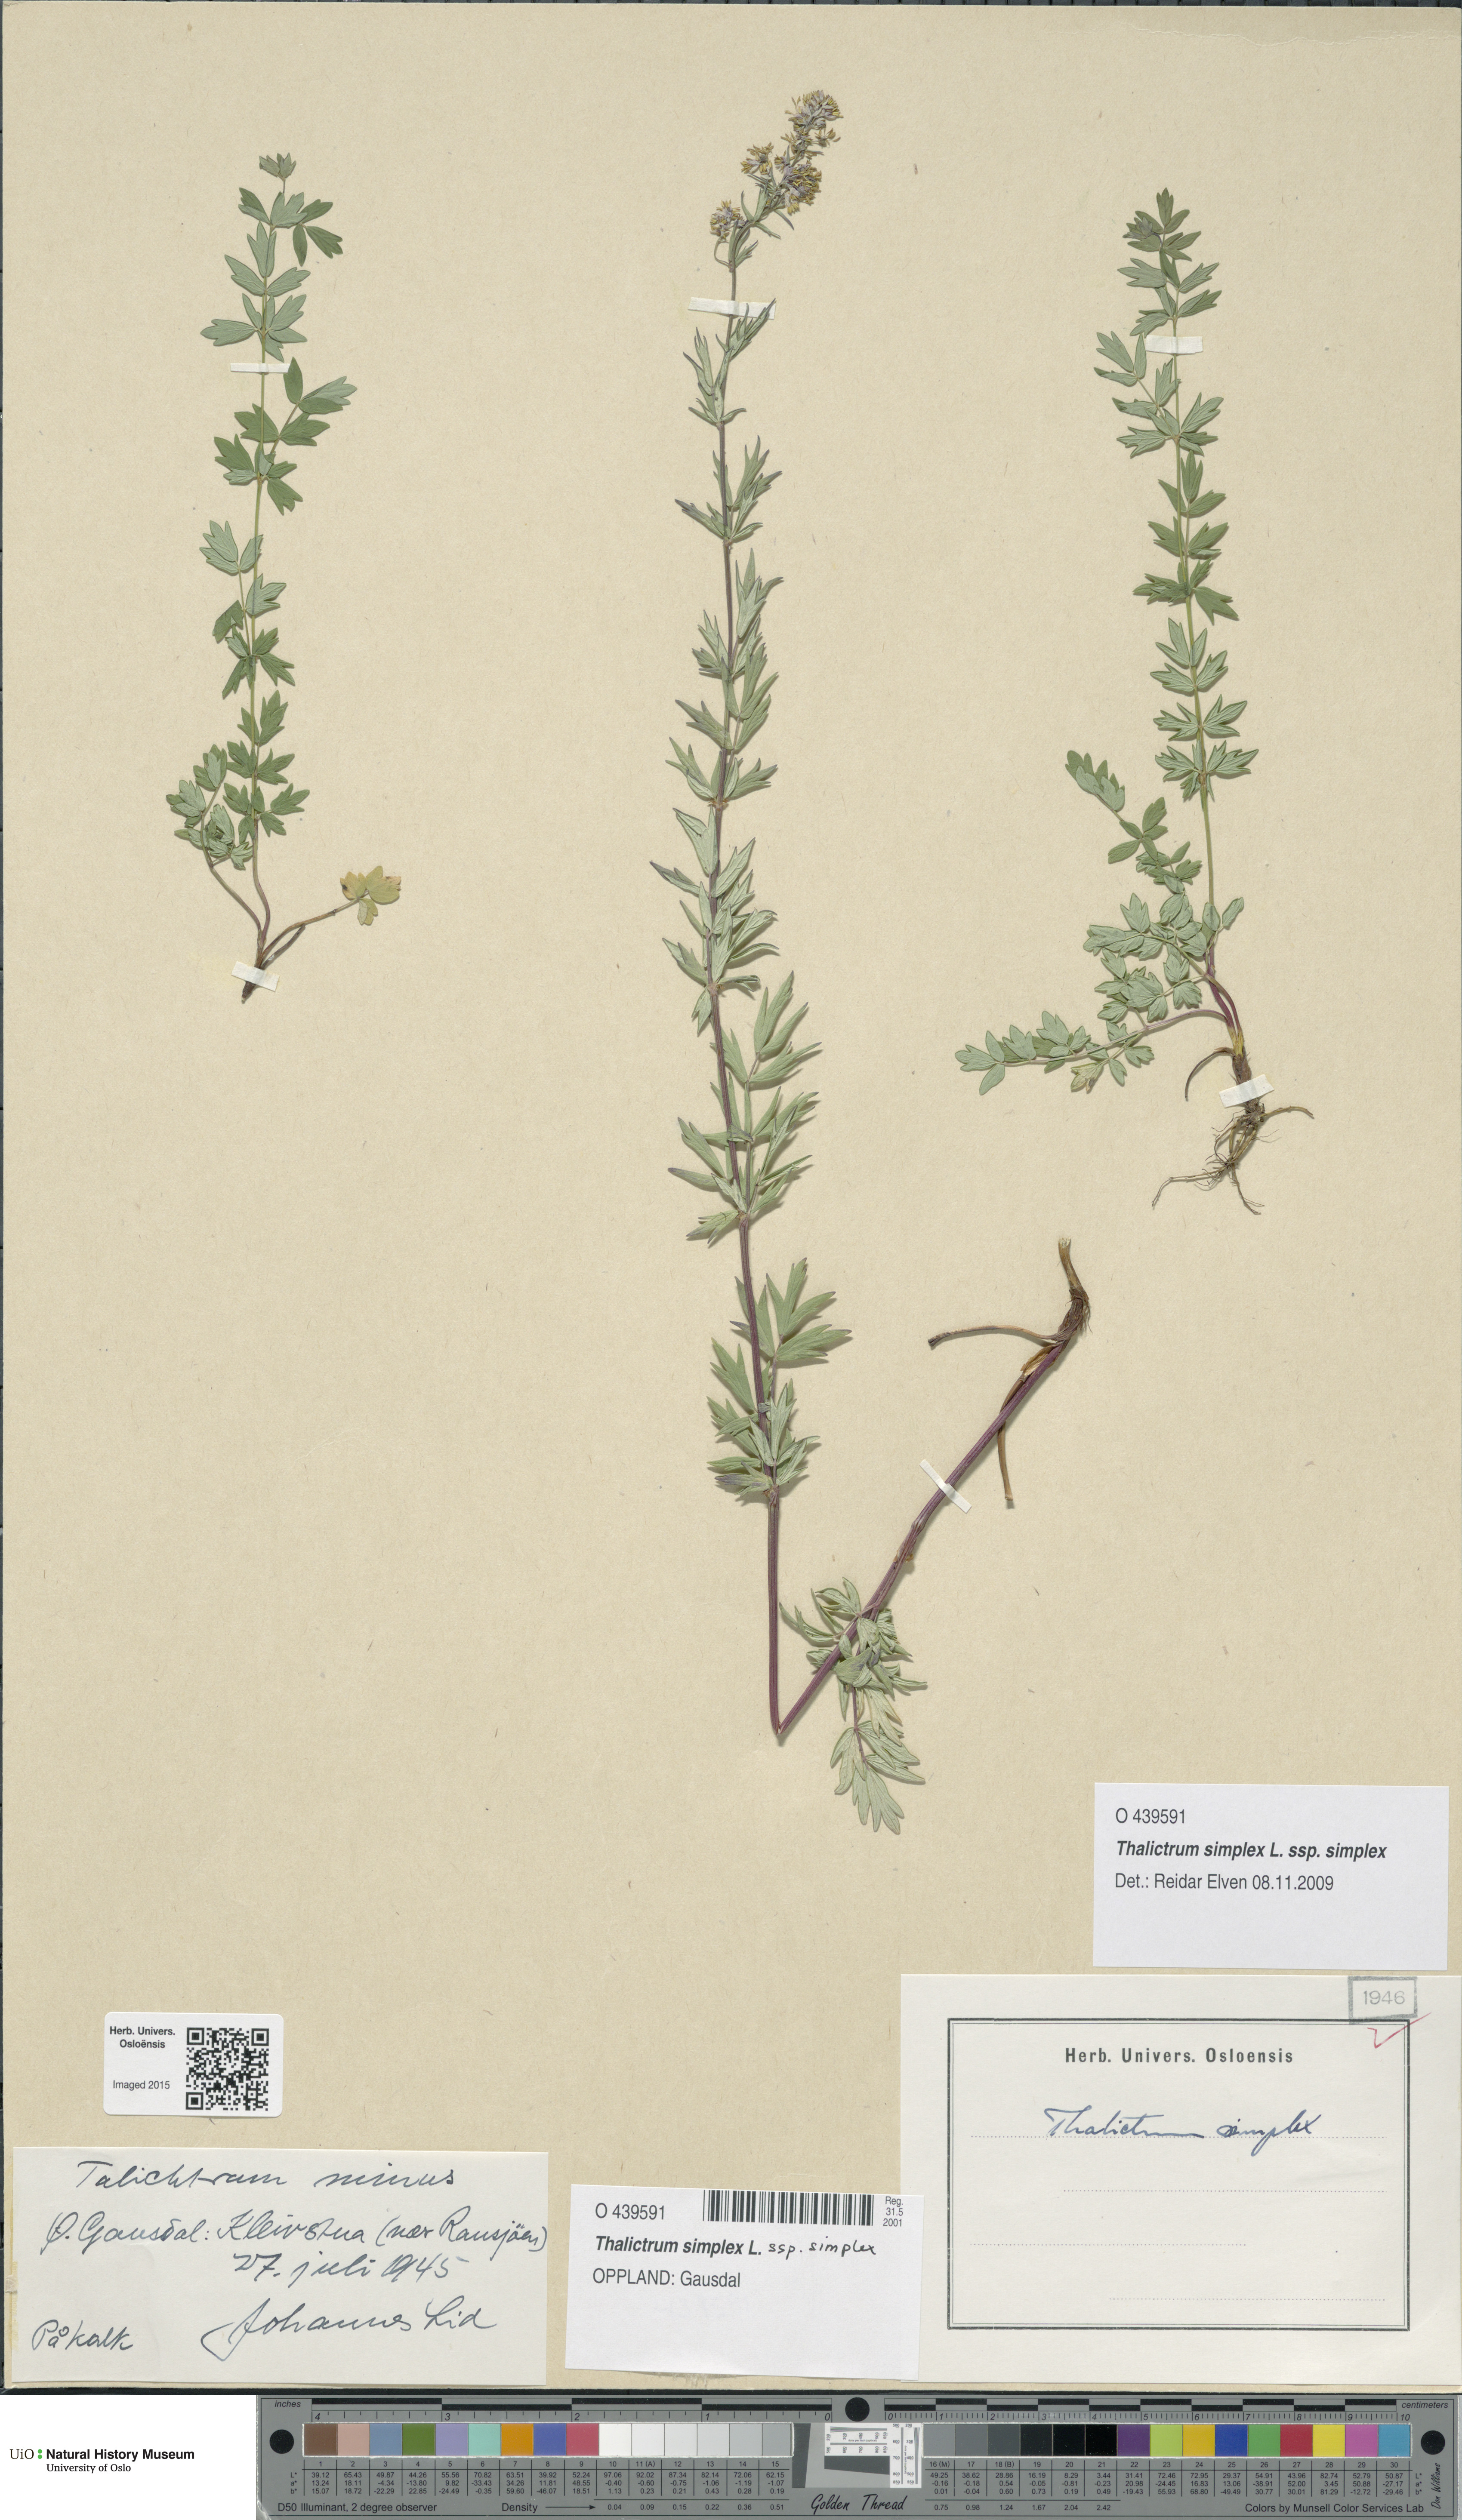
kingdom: Plantae
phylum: Tracheophyta
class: Magnoliopsida
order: Ranunculales
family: Ranunculaceae
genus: Thalictrum
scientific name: Thalictrum simplex
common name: Small meadow-rue
